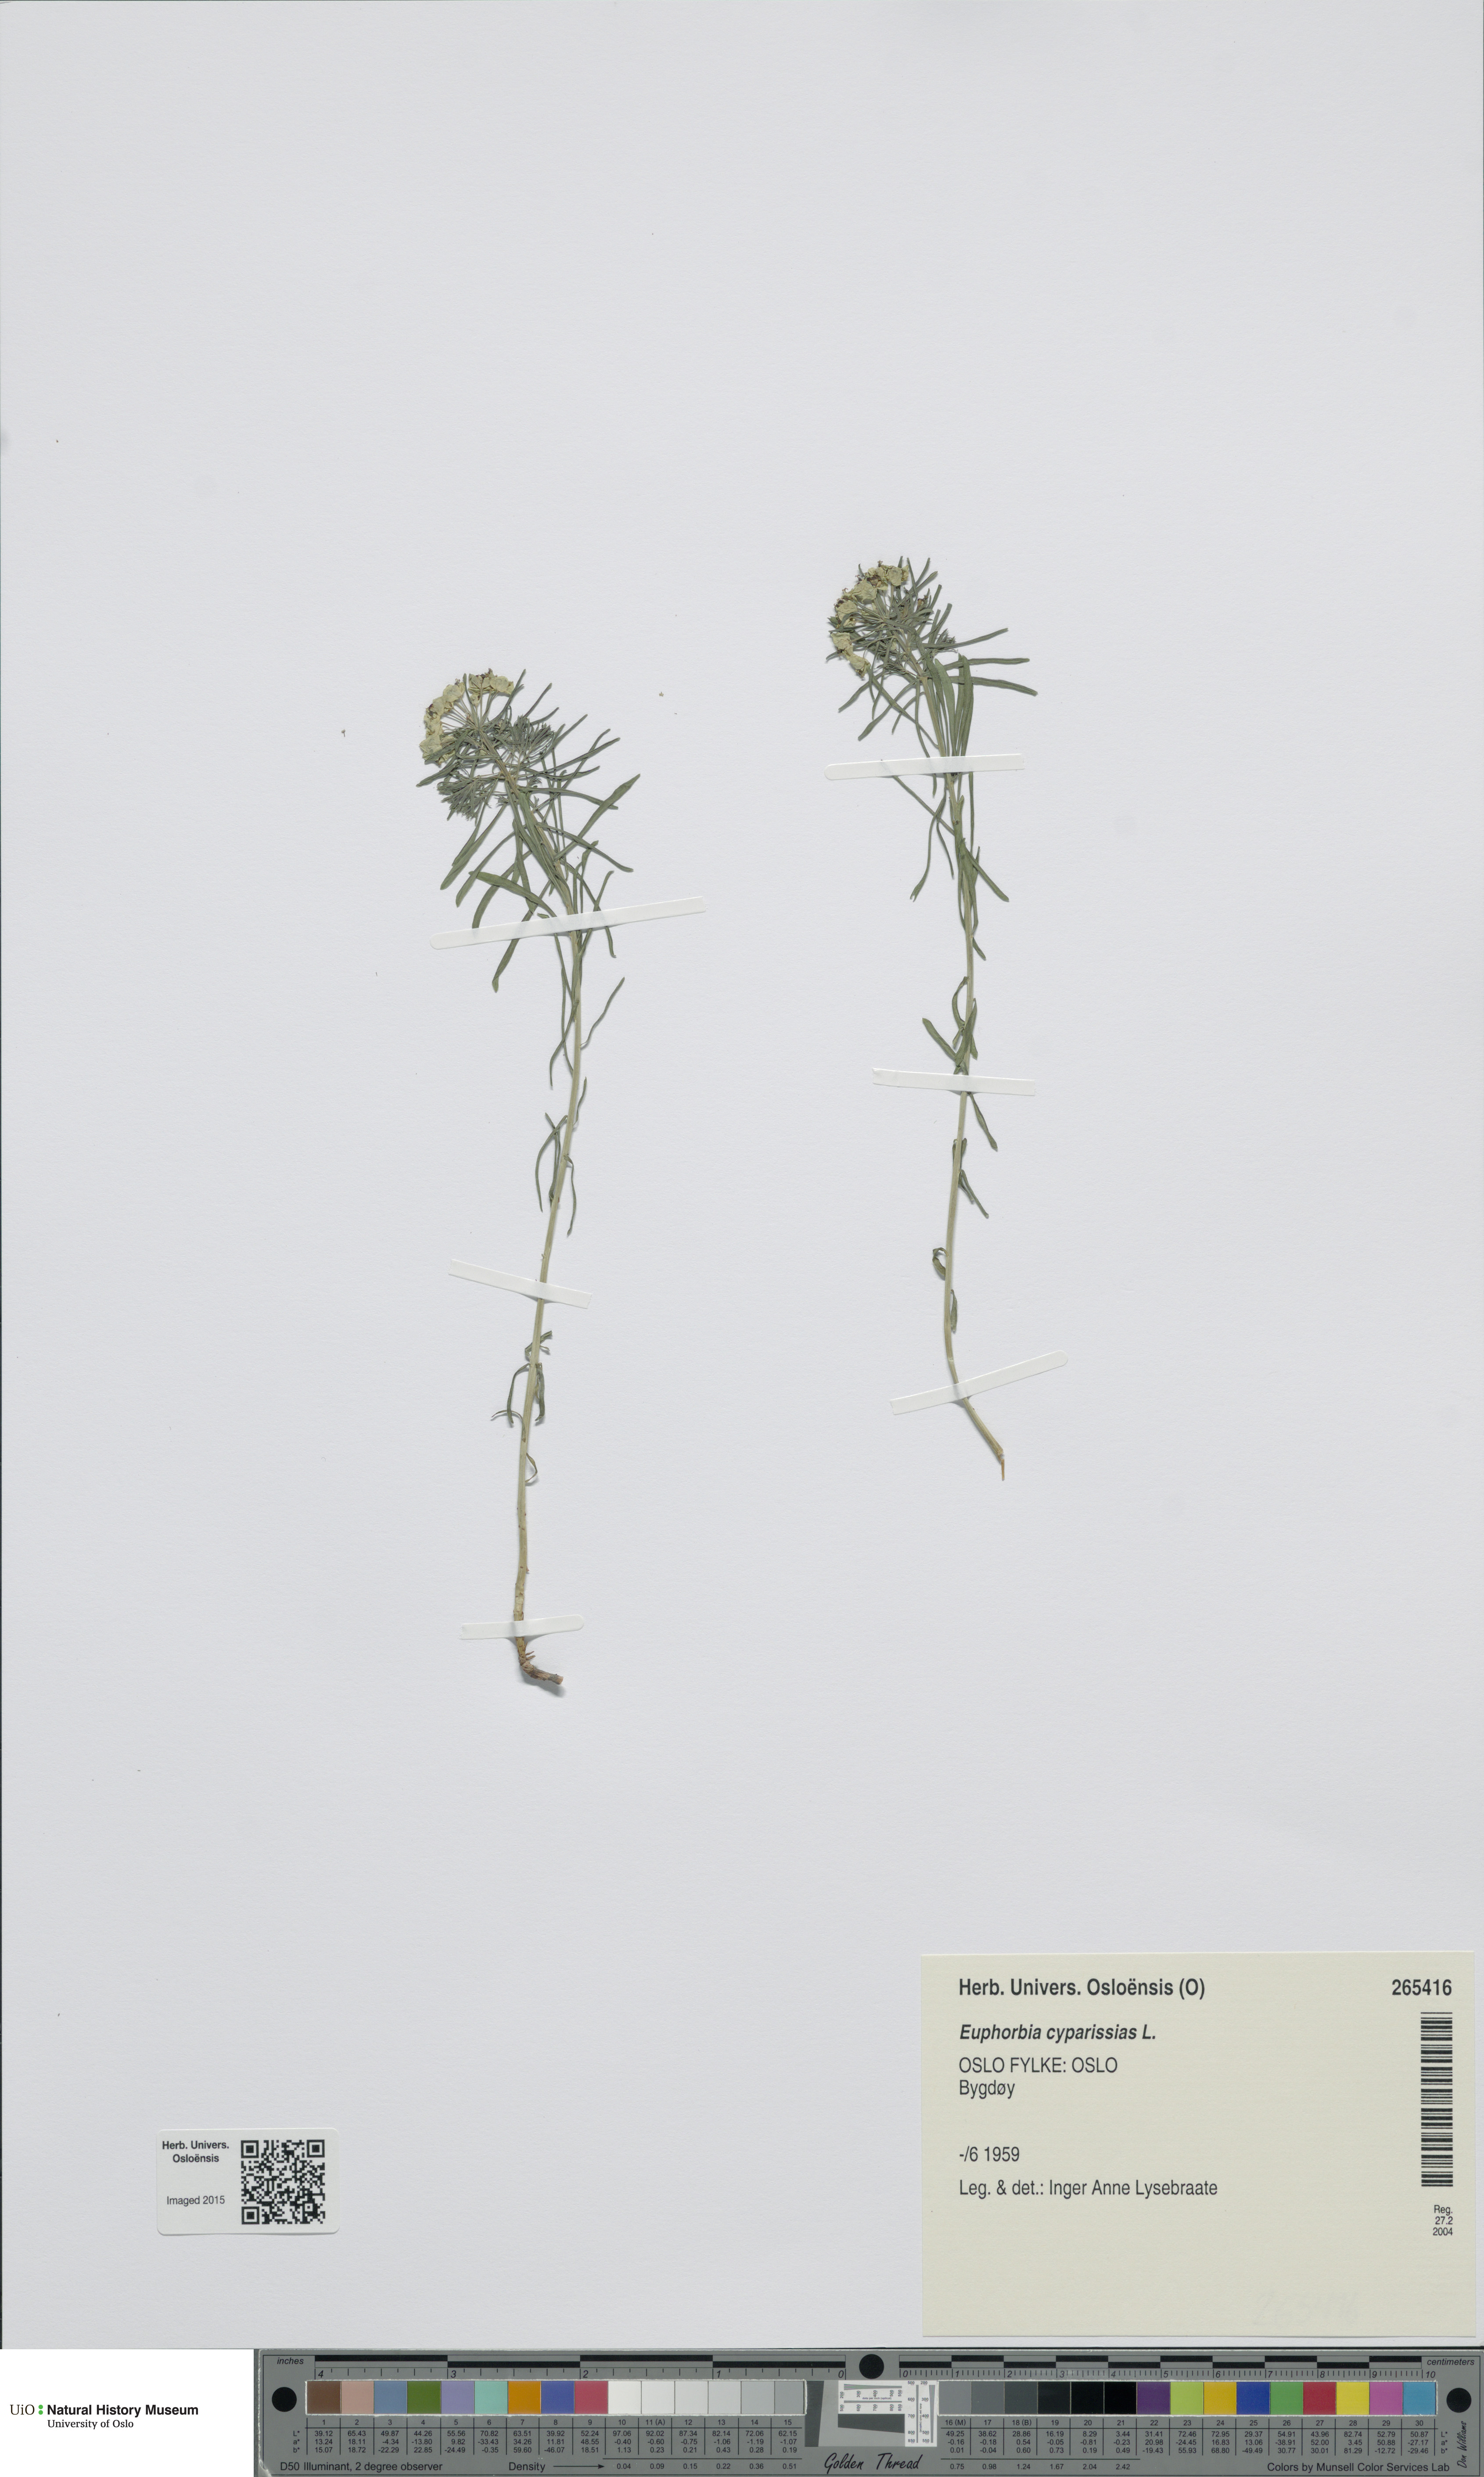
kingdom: Plantae
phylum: Tracheophyta
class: Magnoliopsida
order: Malpighiales
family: Euphorbiaceae
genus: Euphorbia
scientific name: Euphorbia cyparissias
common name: Cypress spurge
